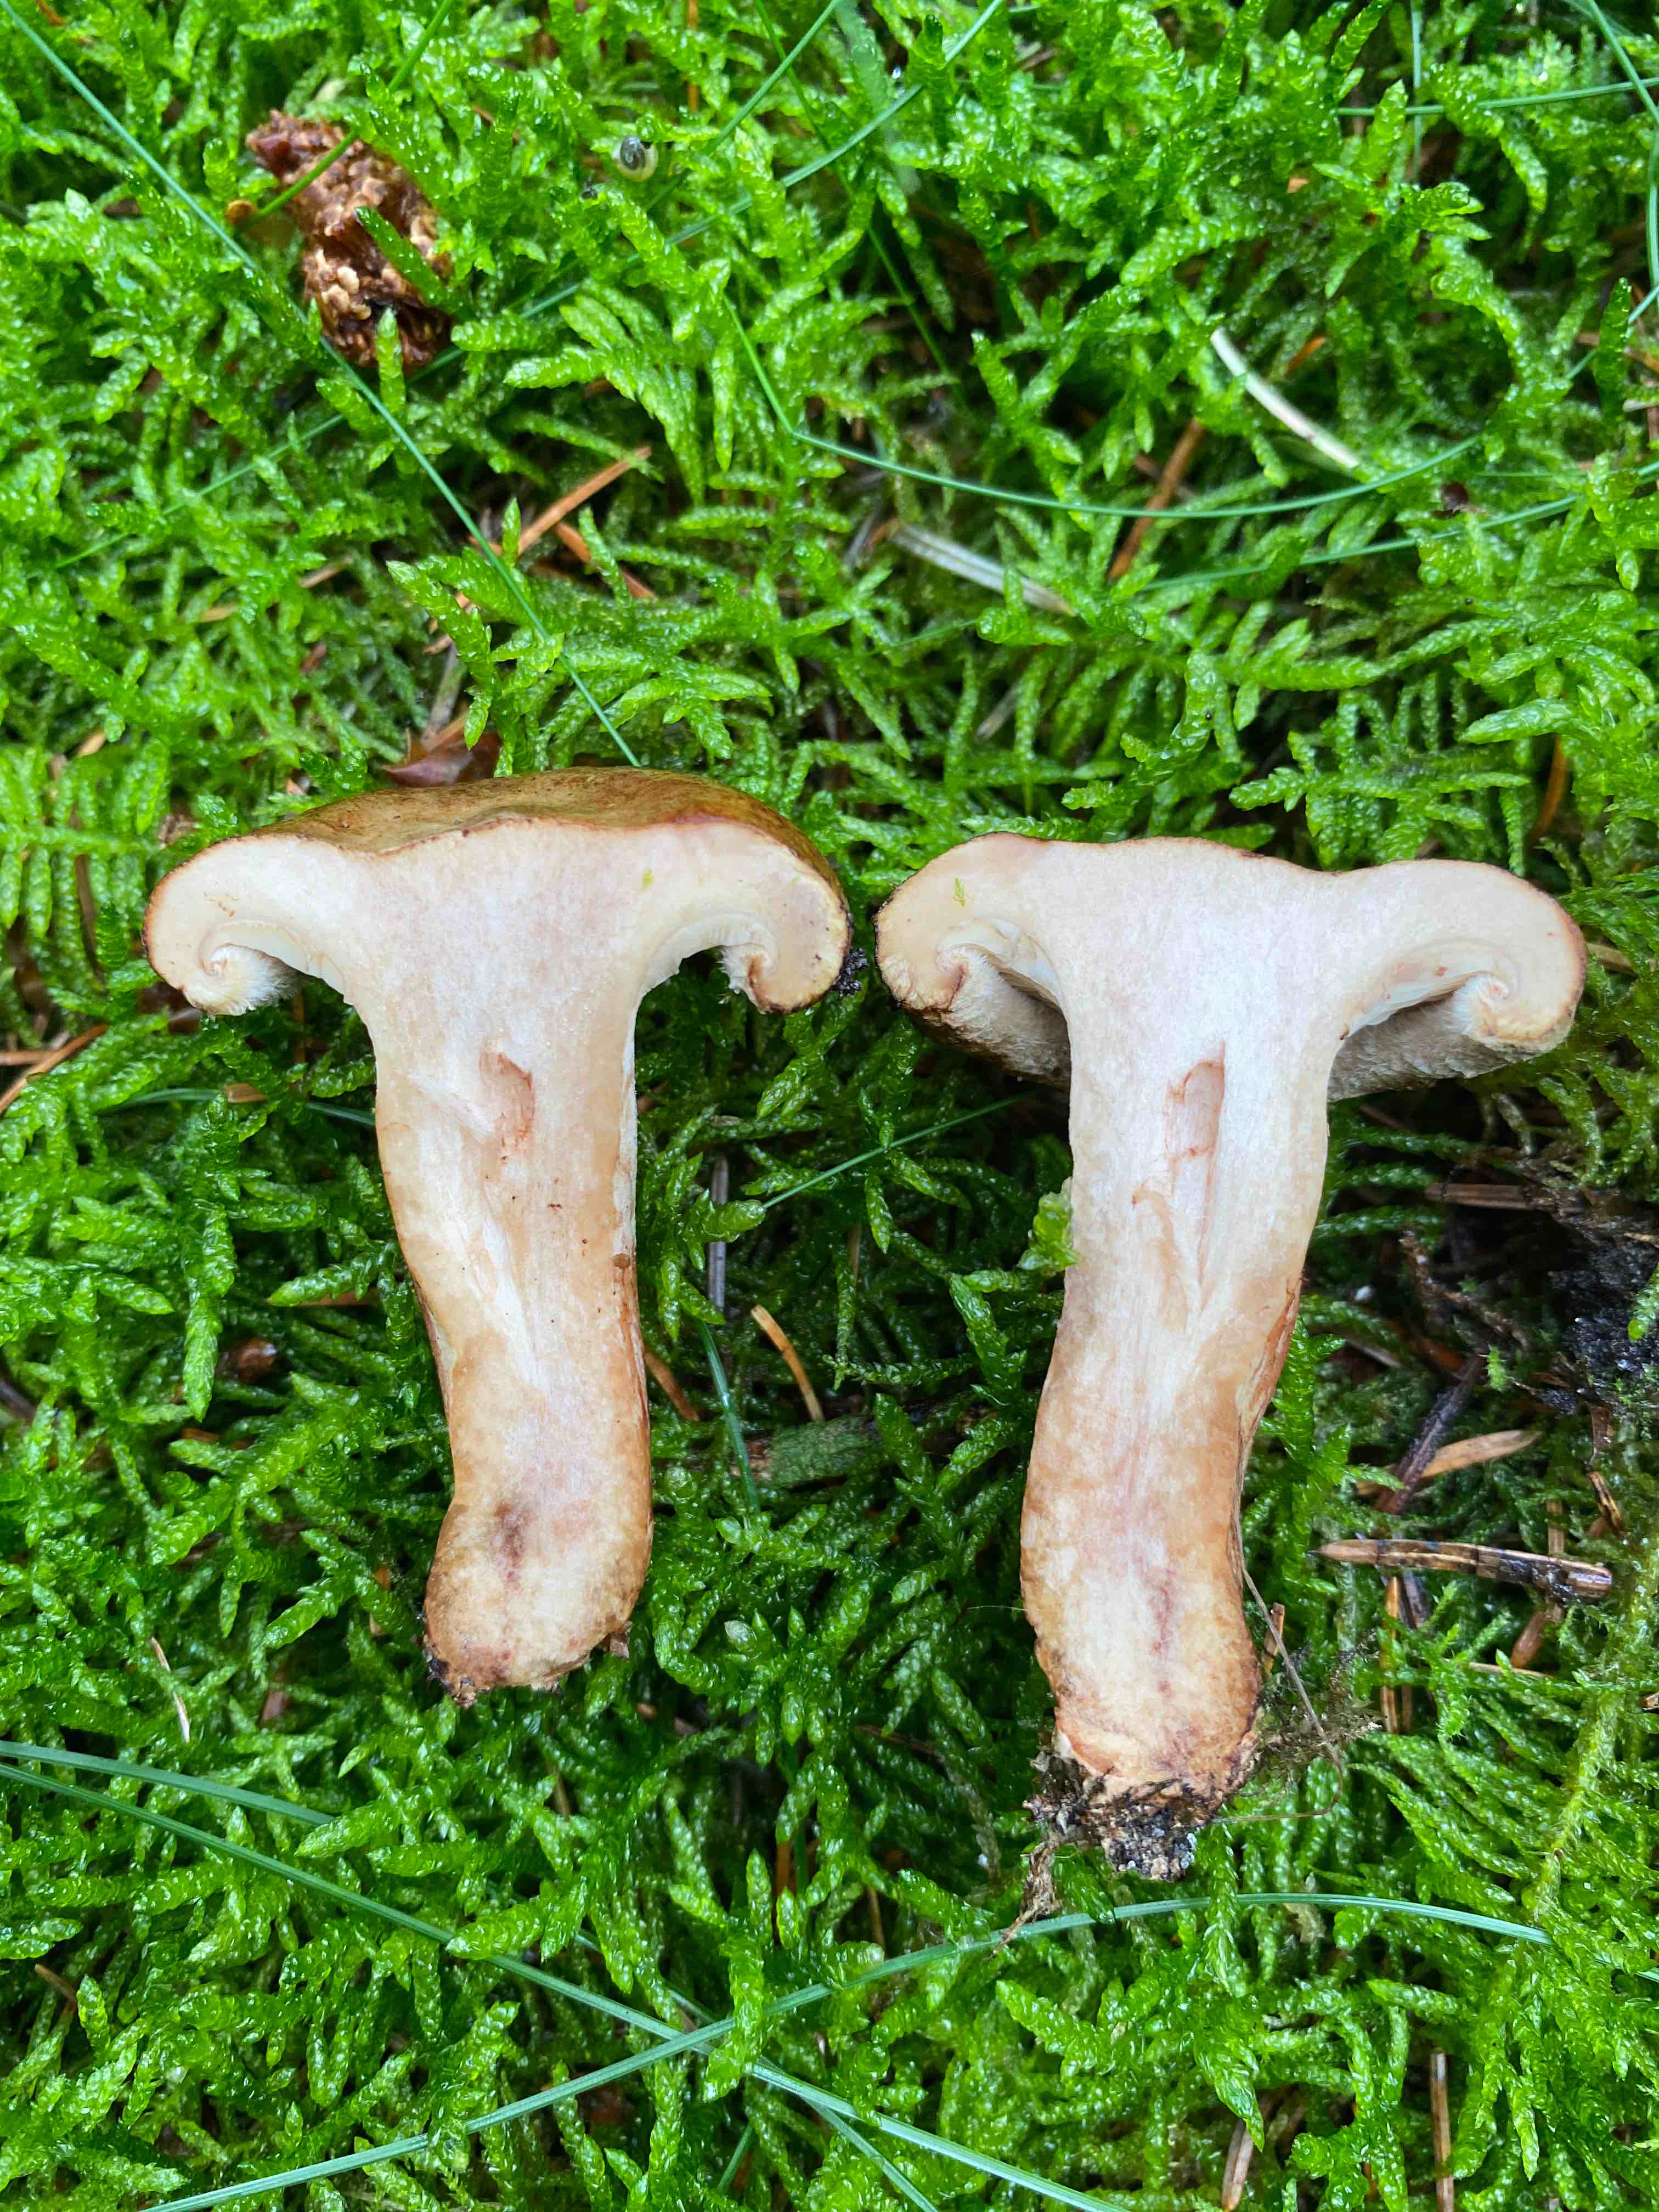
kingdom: Fungi
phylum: Basidiomycota
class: Agaricomycetes
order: Boletales
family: Paxillaceae
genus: Paxillus
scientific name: Paxillus involutus
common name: almindelig netbladhat
